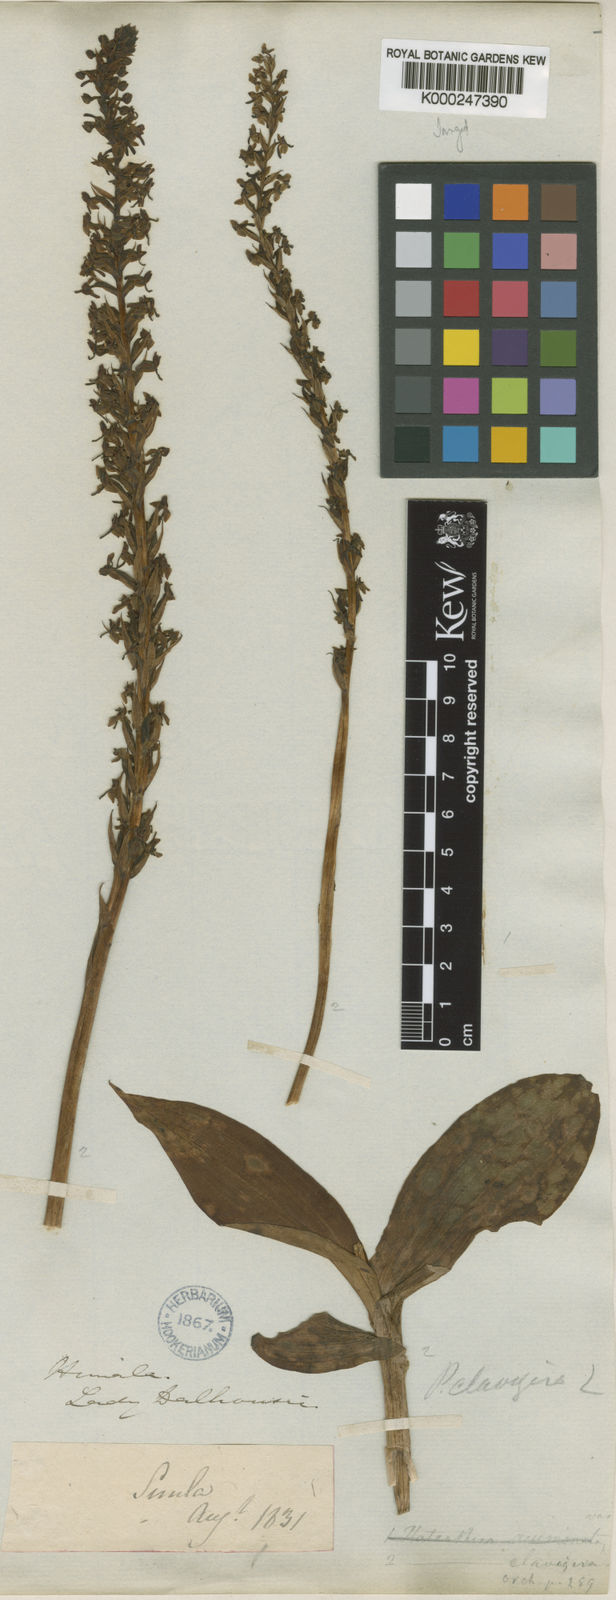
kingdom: Plantae
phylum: Tracheophyta
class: Liliopsida
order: Asparagales
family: Orchidaceae
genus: Herminium
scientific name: Herminium clavigerum
